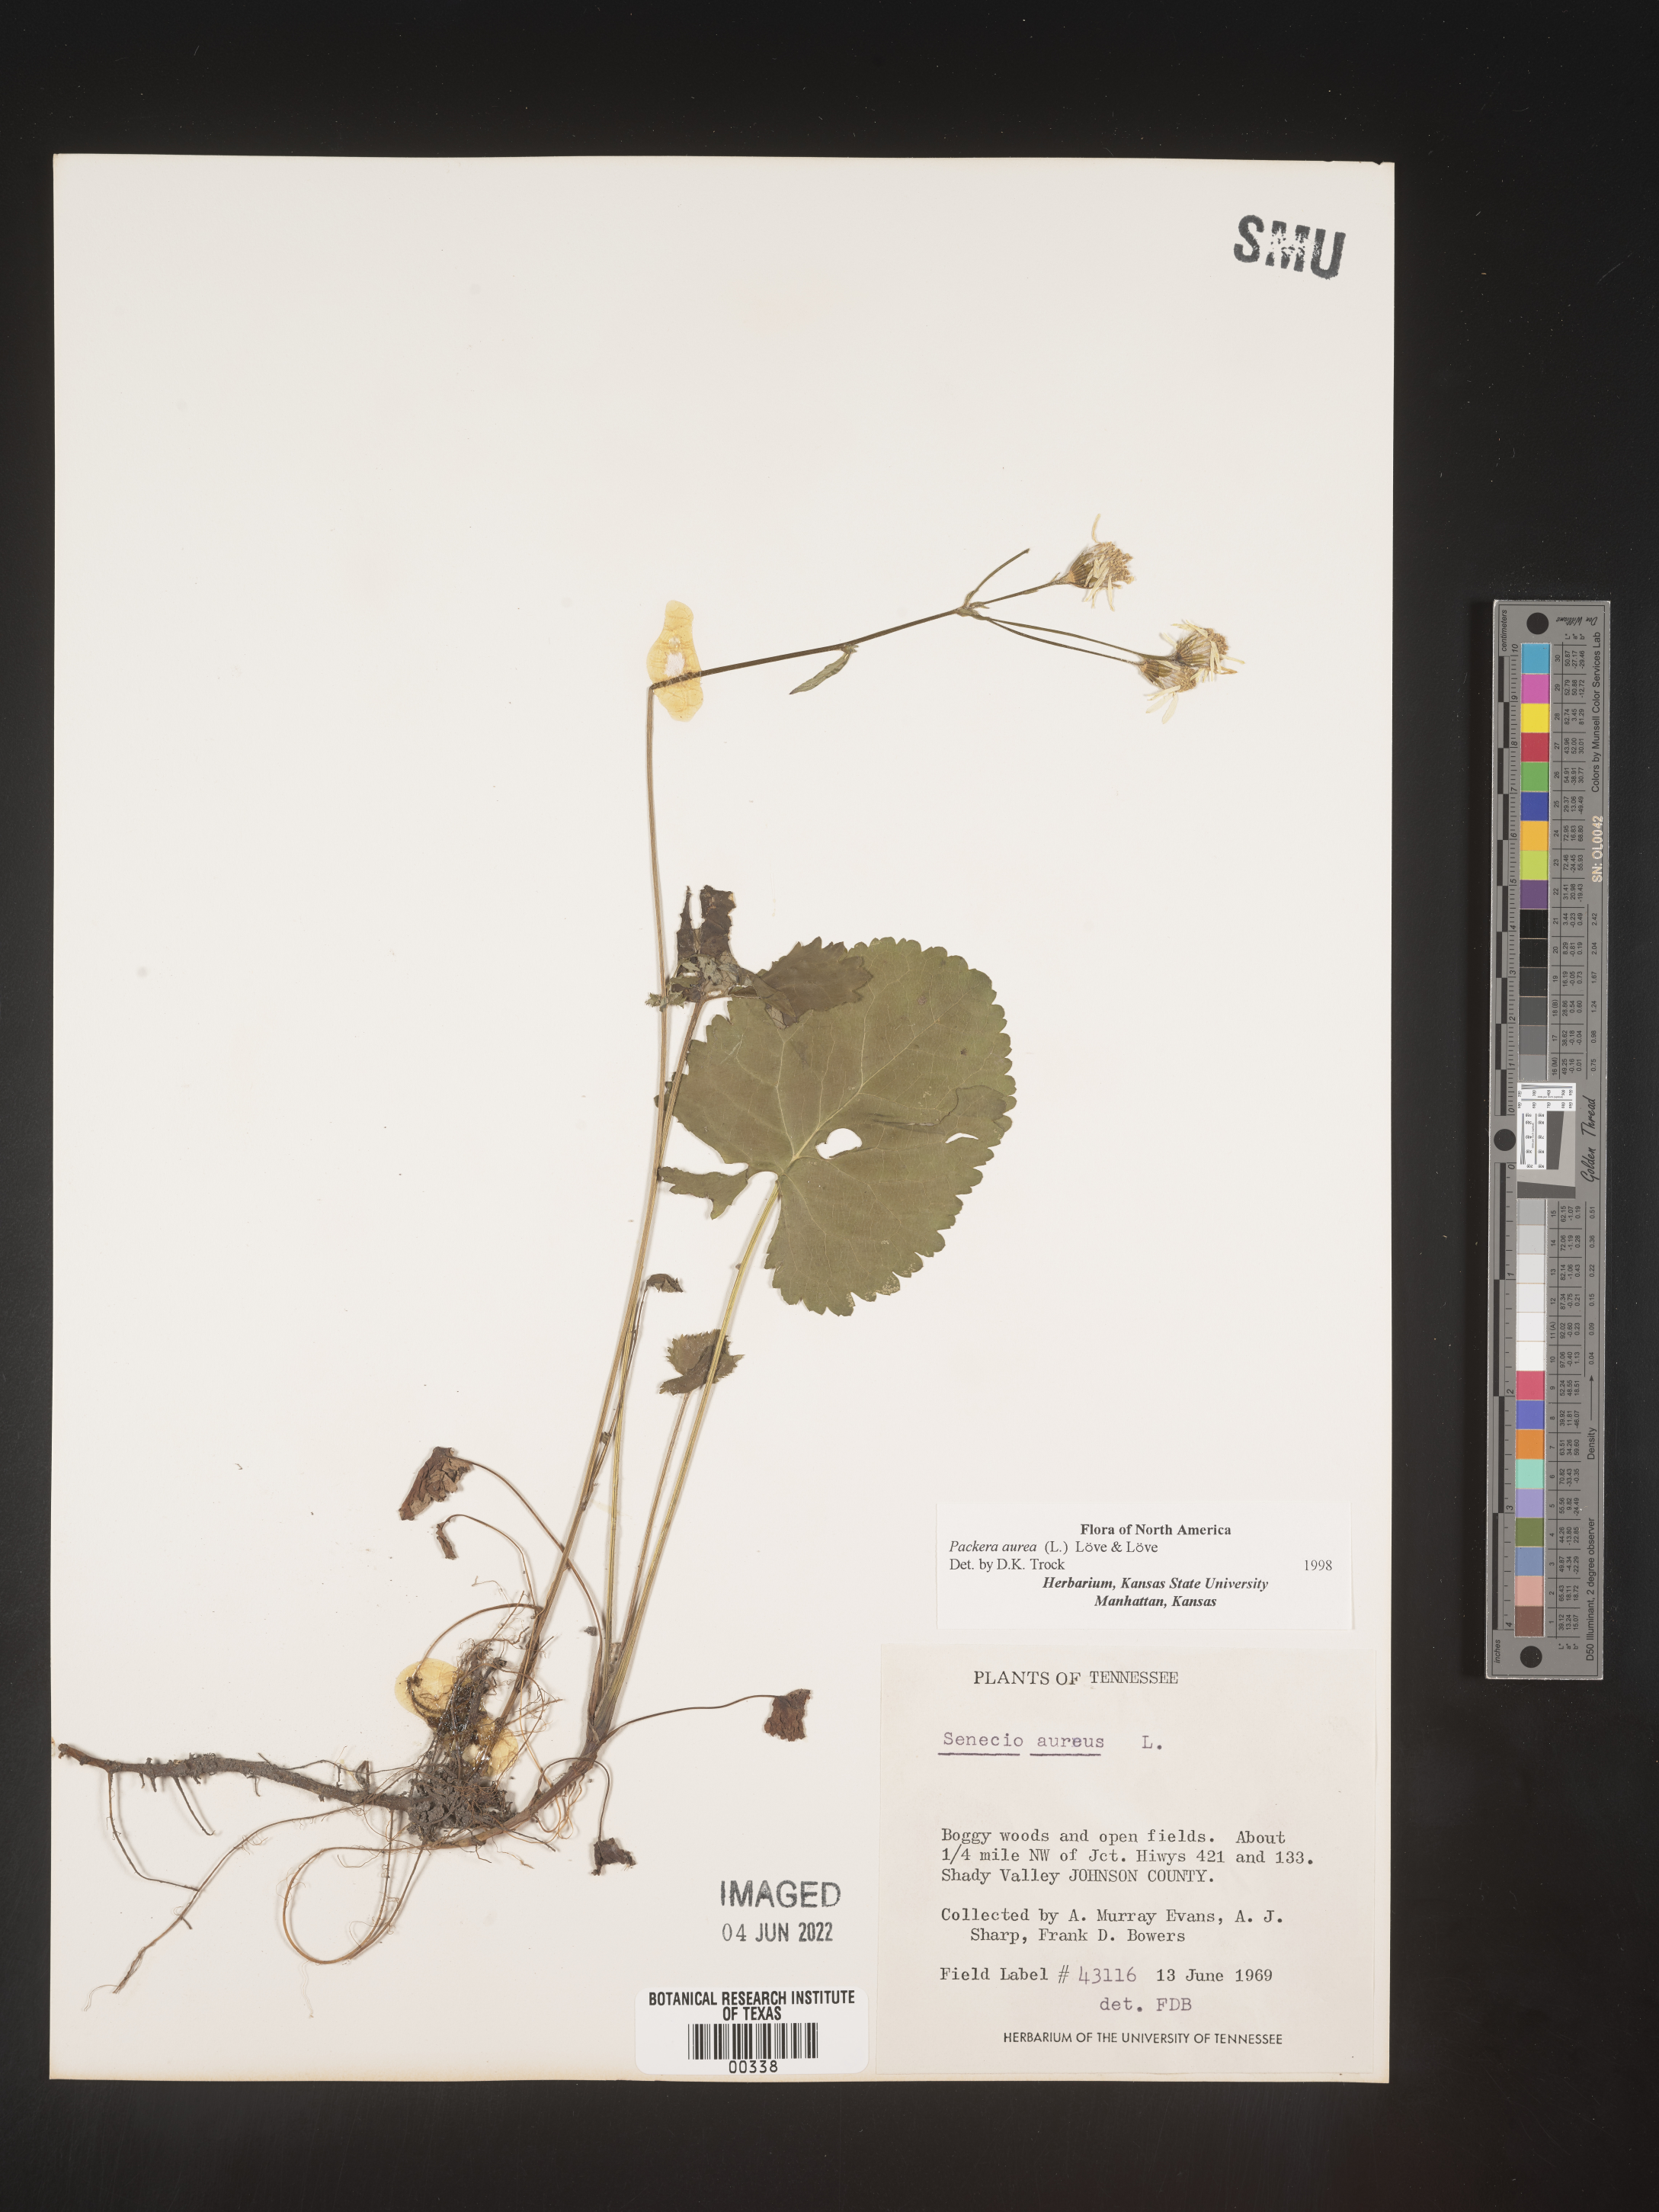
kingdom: Plantae
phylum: Tracheophyta
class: Magnoliopsida
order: Asterales
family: Asteraceae
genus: Packera
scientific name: Packera aurea
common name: Golden groundsel
